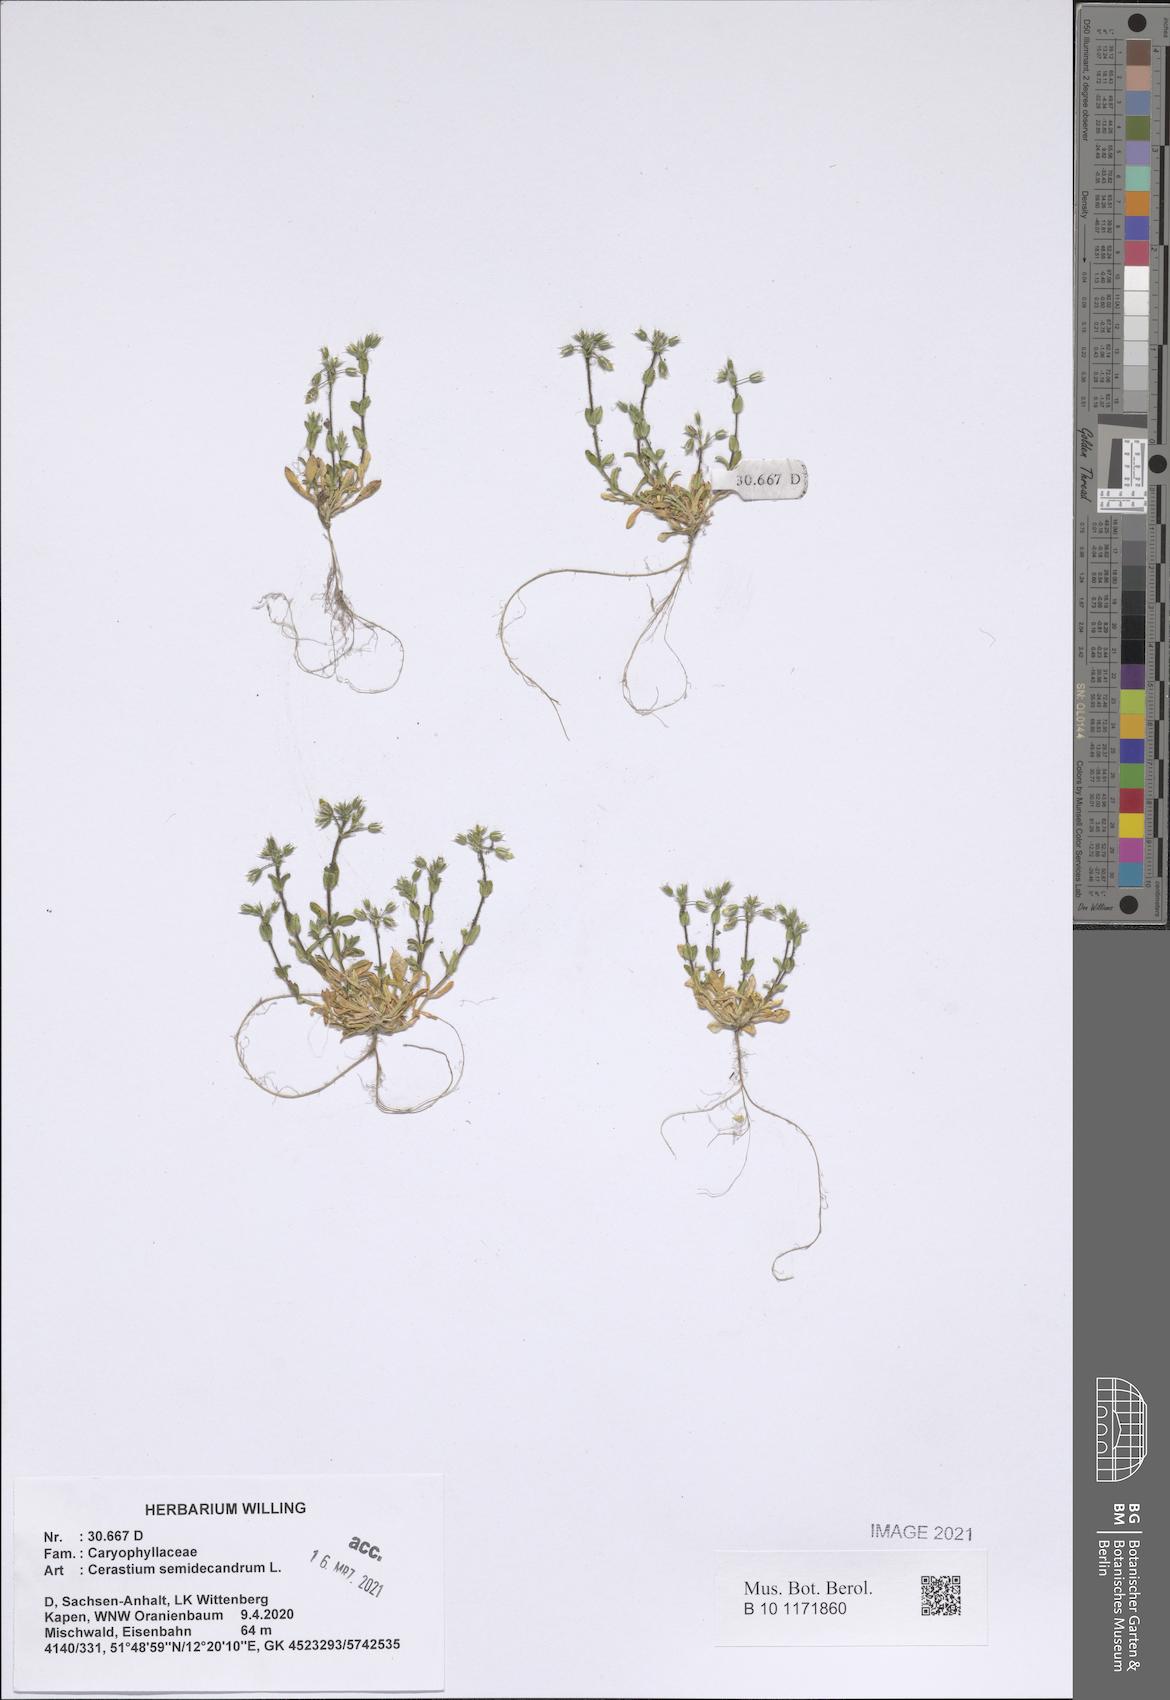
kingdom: Plantae
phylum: Tracheophyta
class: Magnoliopsida
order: Caryophyllales
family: Caryophyllaceae
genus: Cerastium
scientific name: Cerastium semidecandrum
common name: Little mouse-ear
